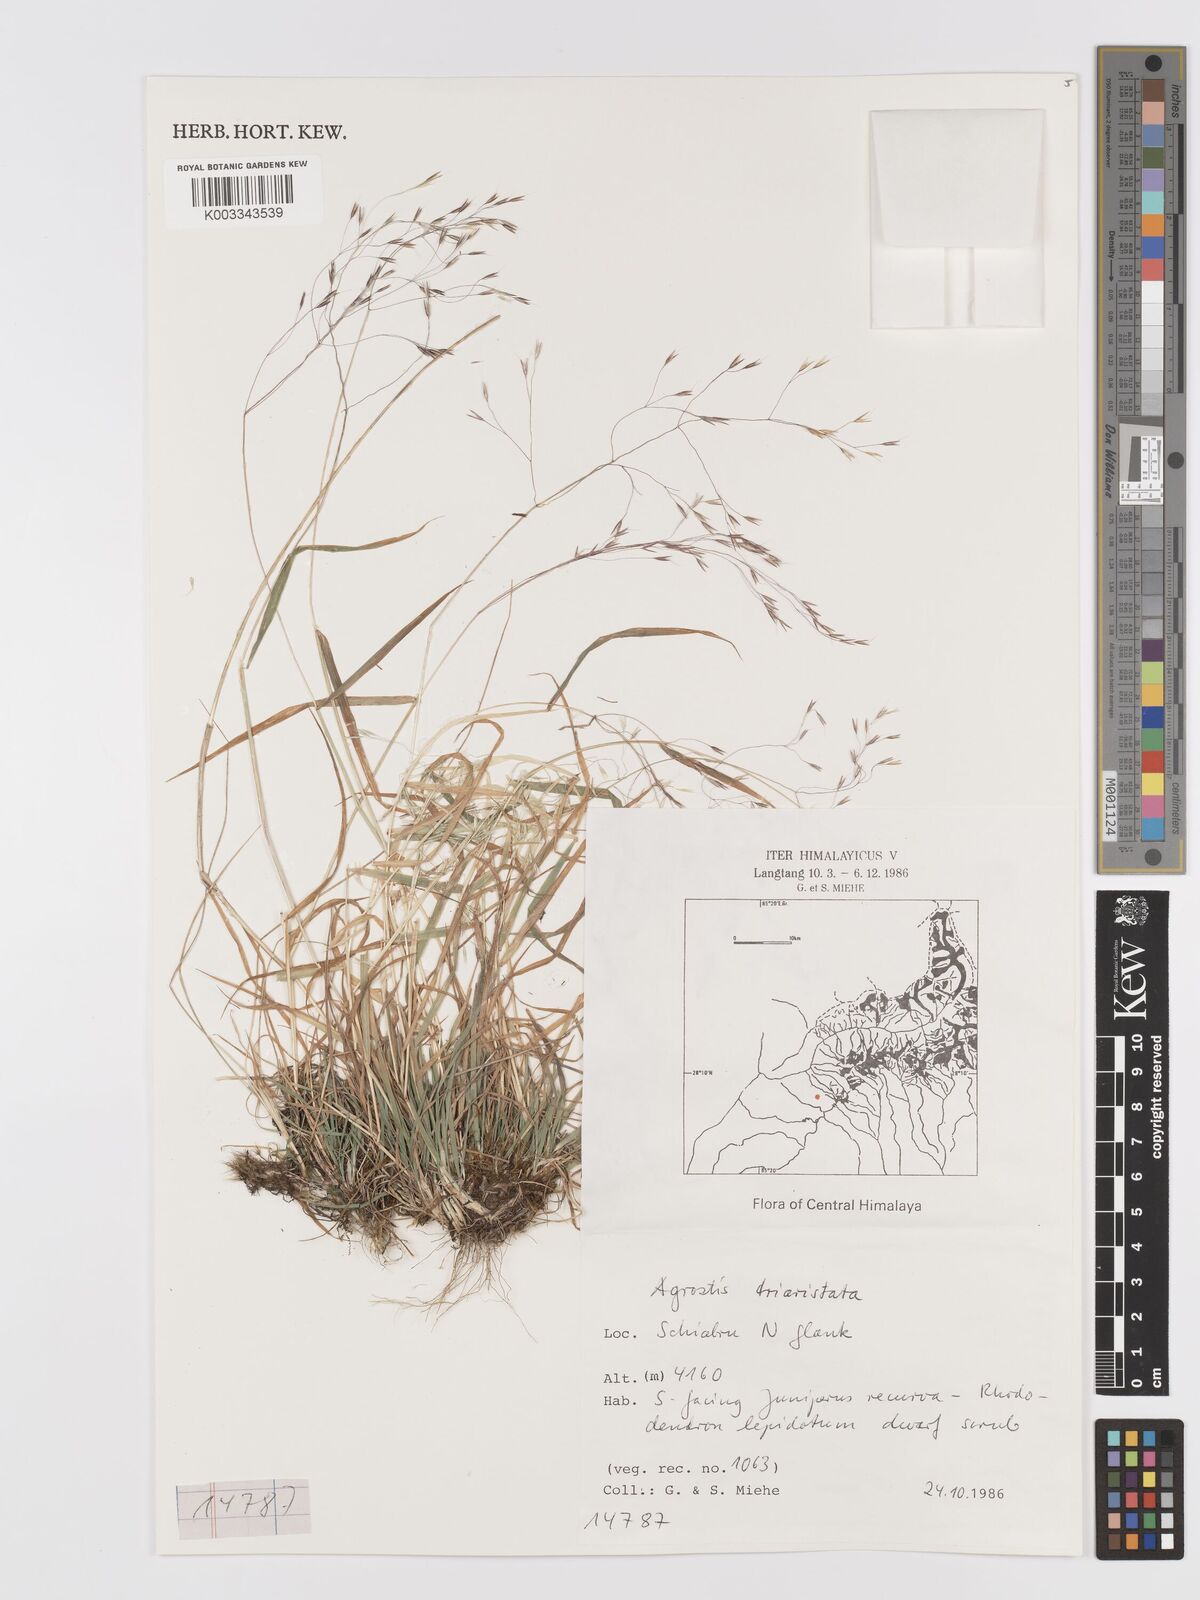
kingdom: Plantae
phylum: Tracheophyta
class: Liliopsida
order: Poales
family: Poaceae
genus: Agrostis
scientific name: Agrostis
